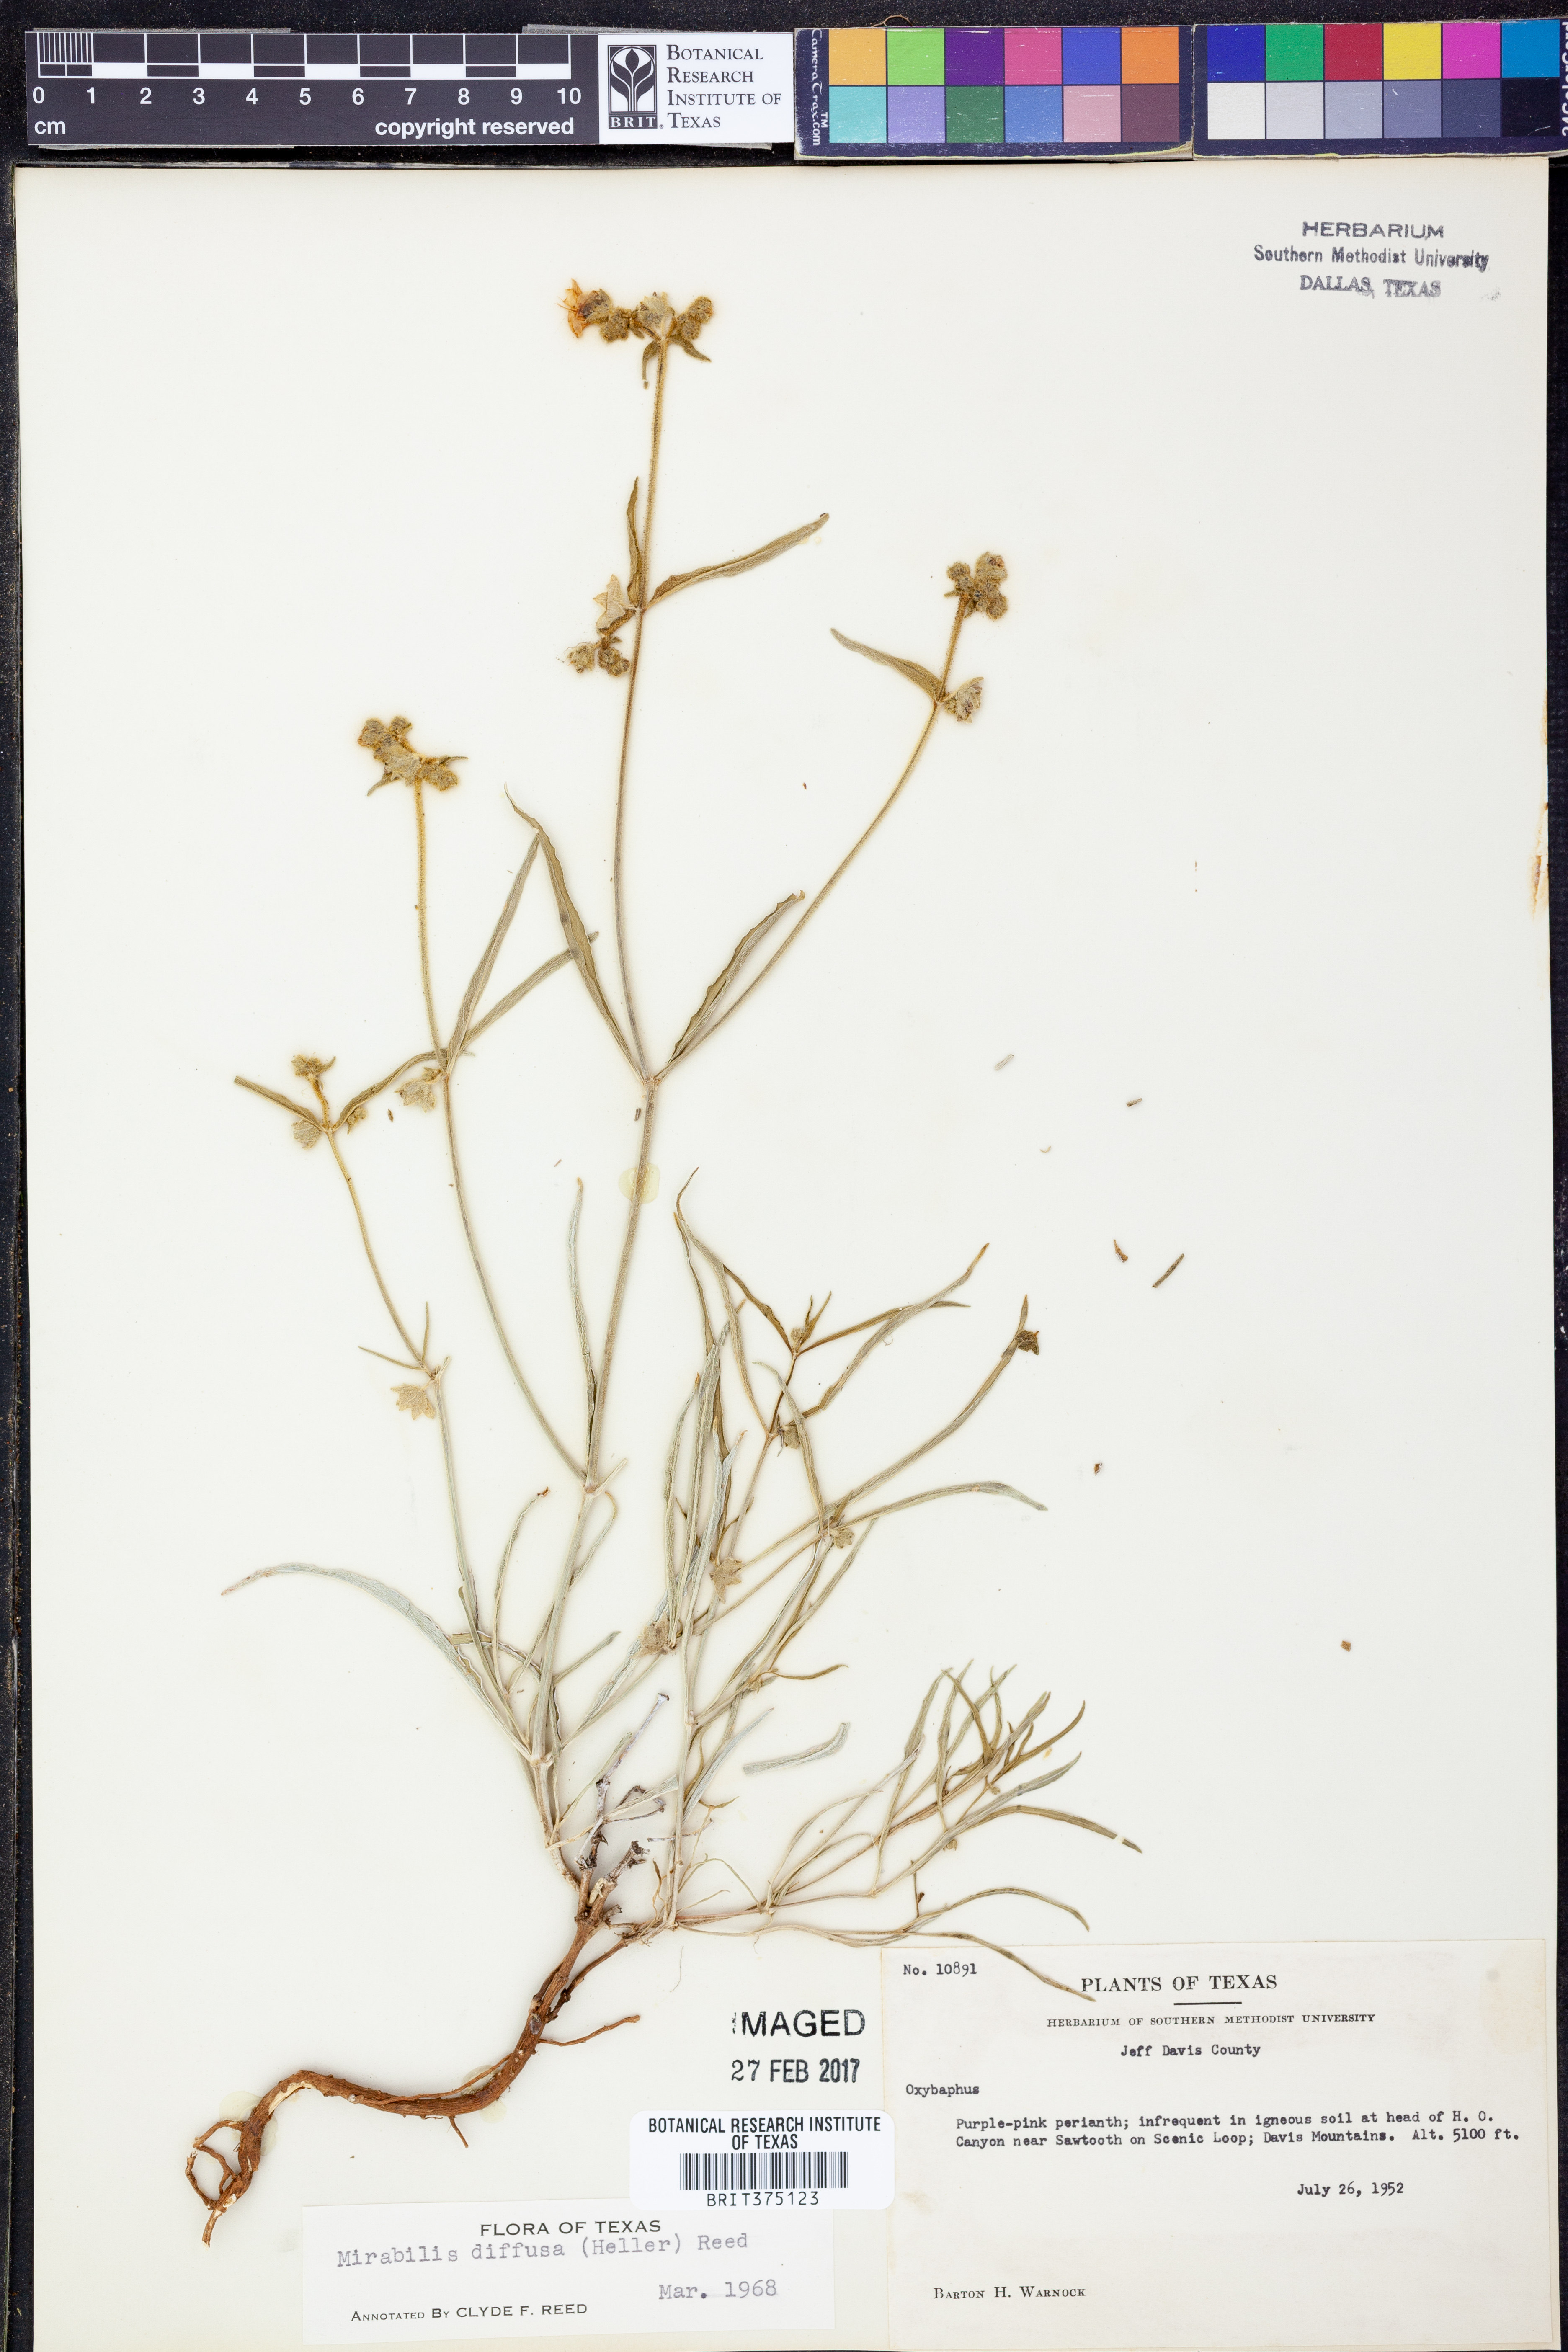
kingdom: Plantae
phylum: Tracheophyta
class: Magnoliopsida
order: Caryophyllales
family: Nyctaginaceae
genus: Mirabilis
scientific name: Mirabilis
